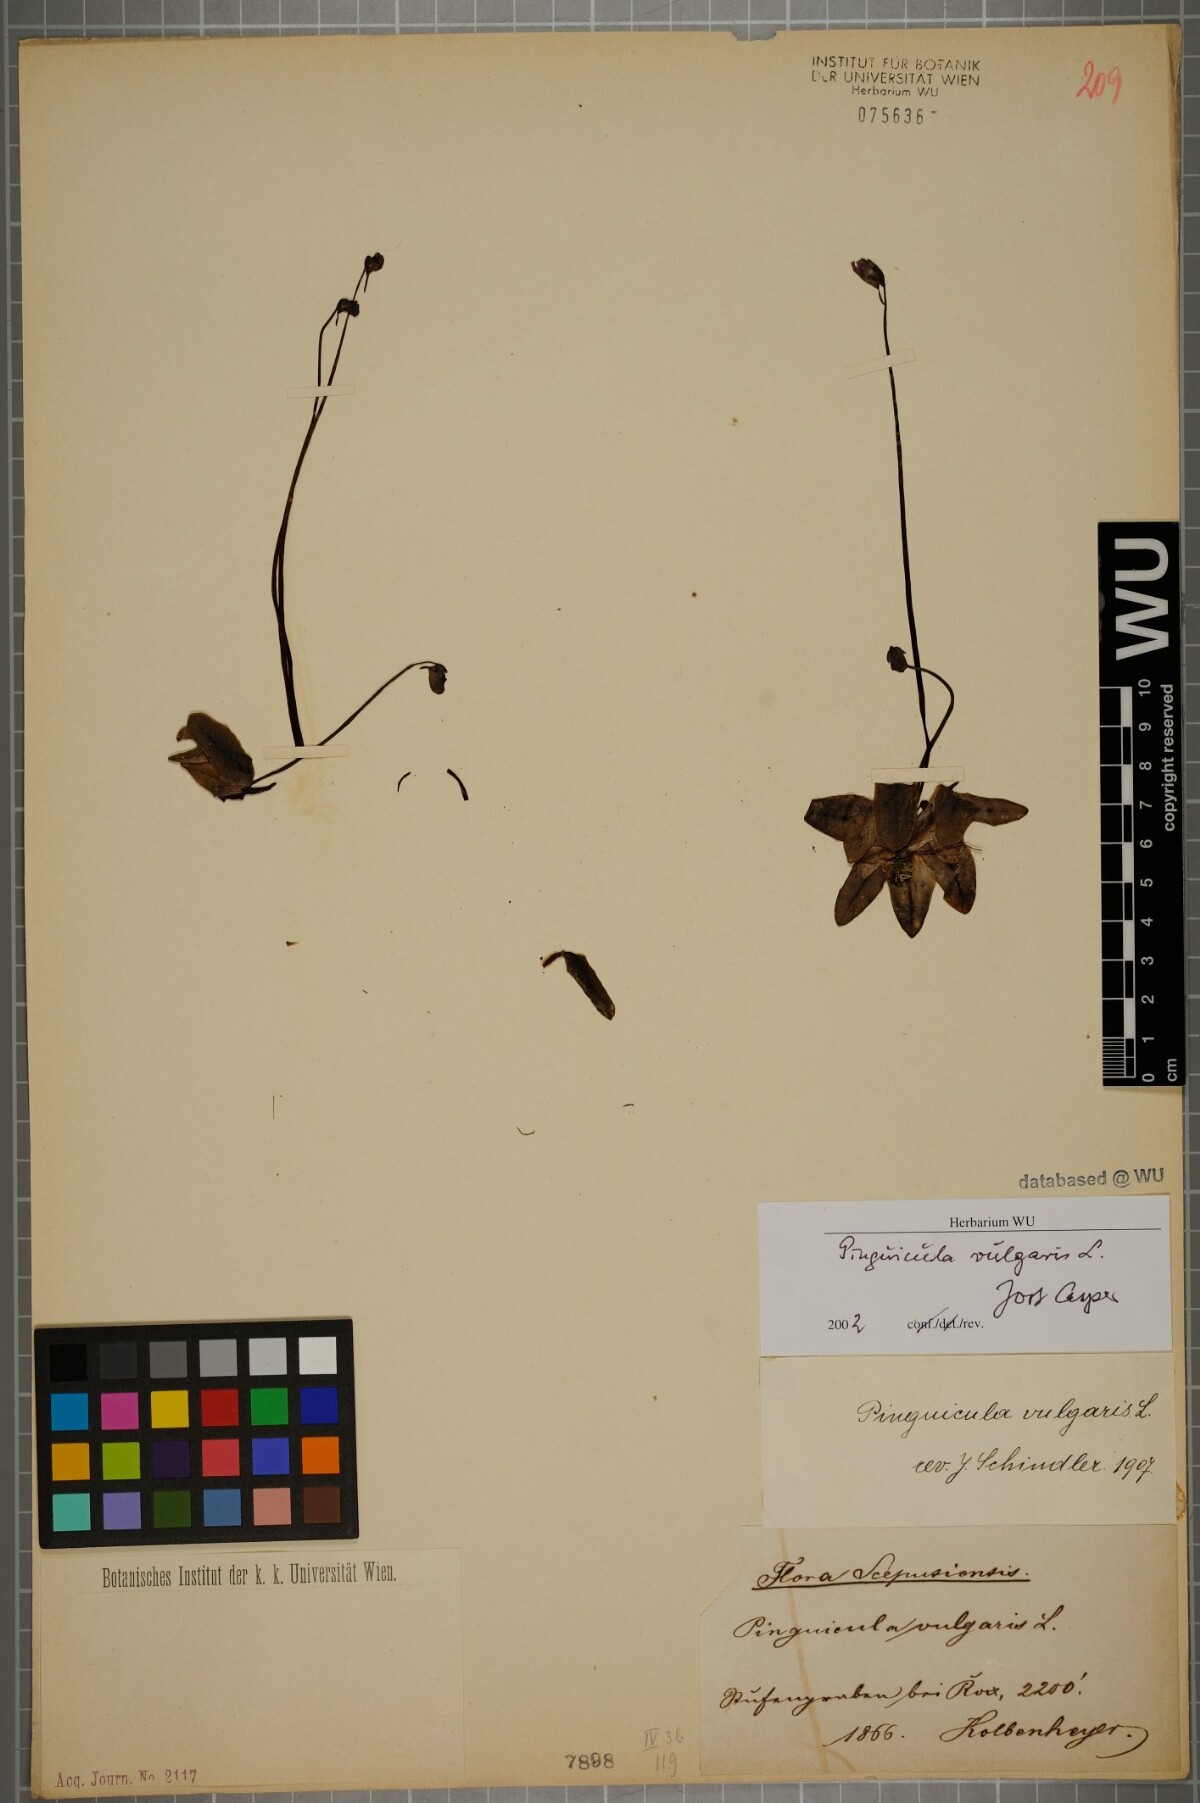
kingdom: Plantae
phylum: Tracheophyta
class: Magnoliopsida
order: Lamiales
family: Lentibulariaceae
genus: Pinguicula
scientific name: Pinguicula vulgaris
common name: Common butterwort
